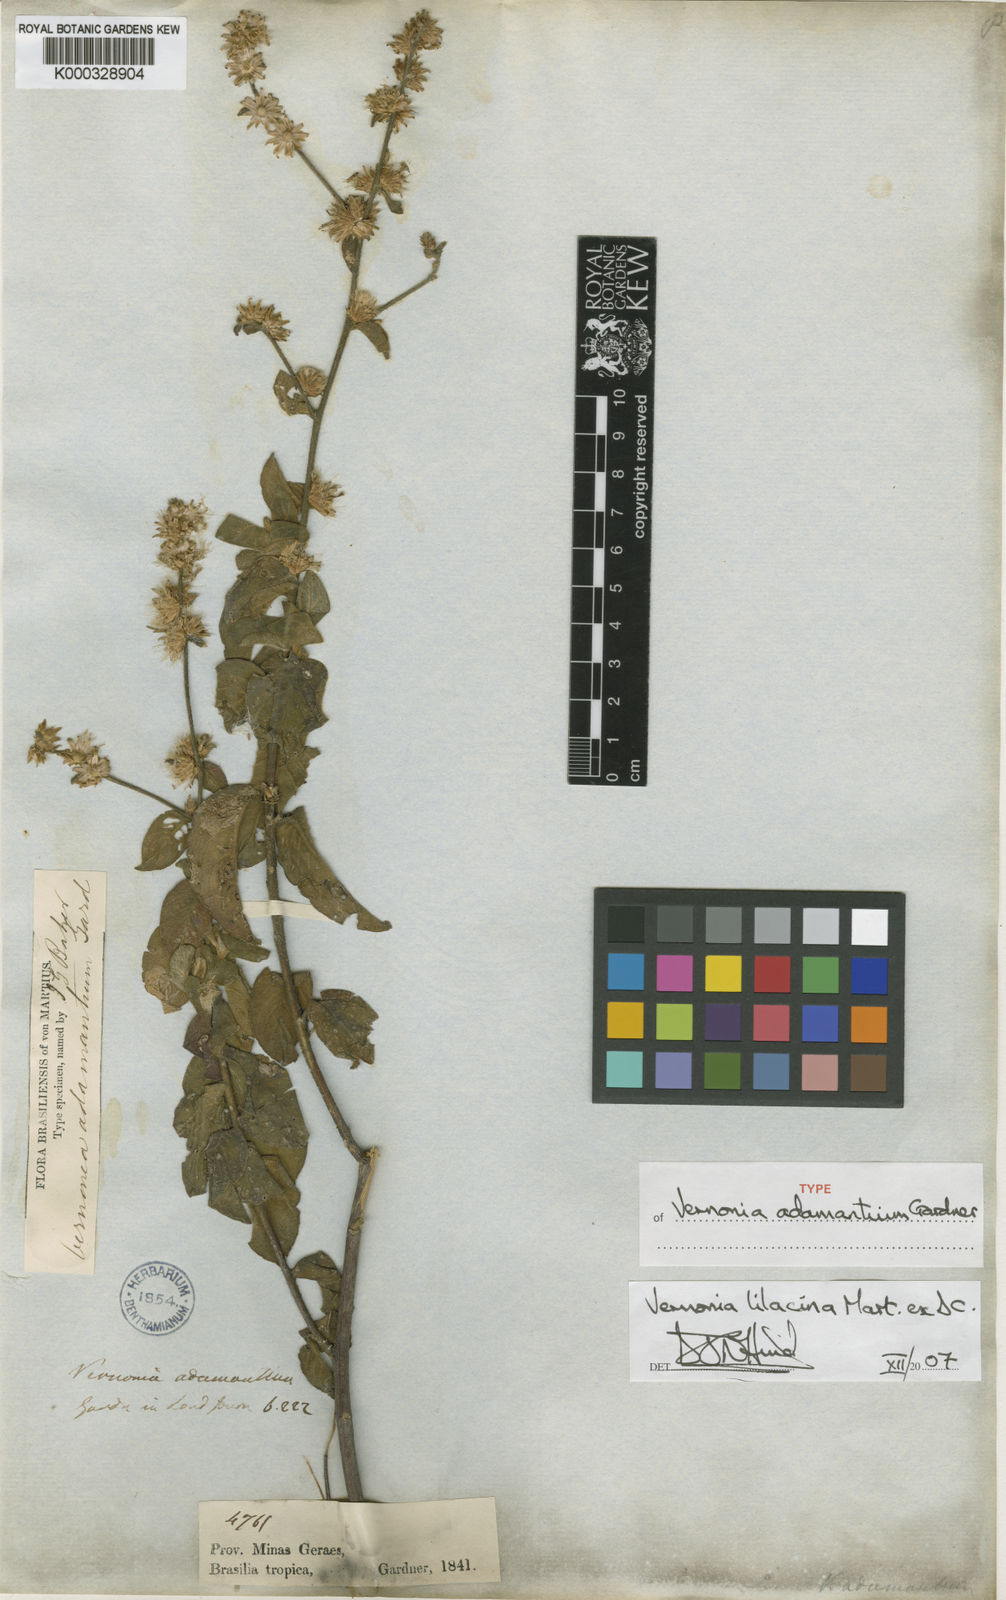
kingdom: Plantae
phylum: Tracheophyta
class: Magnoliopsida
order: Asterales
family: Asteraceae
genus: Lepidaploa
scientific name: Lepidaploa lilacina
